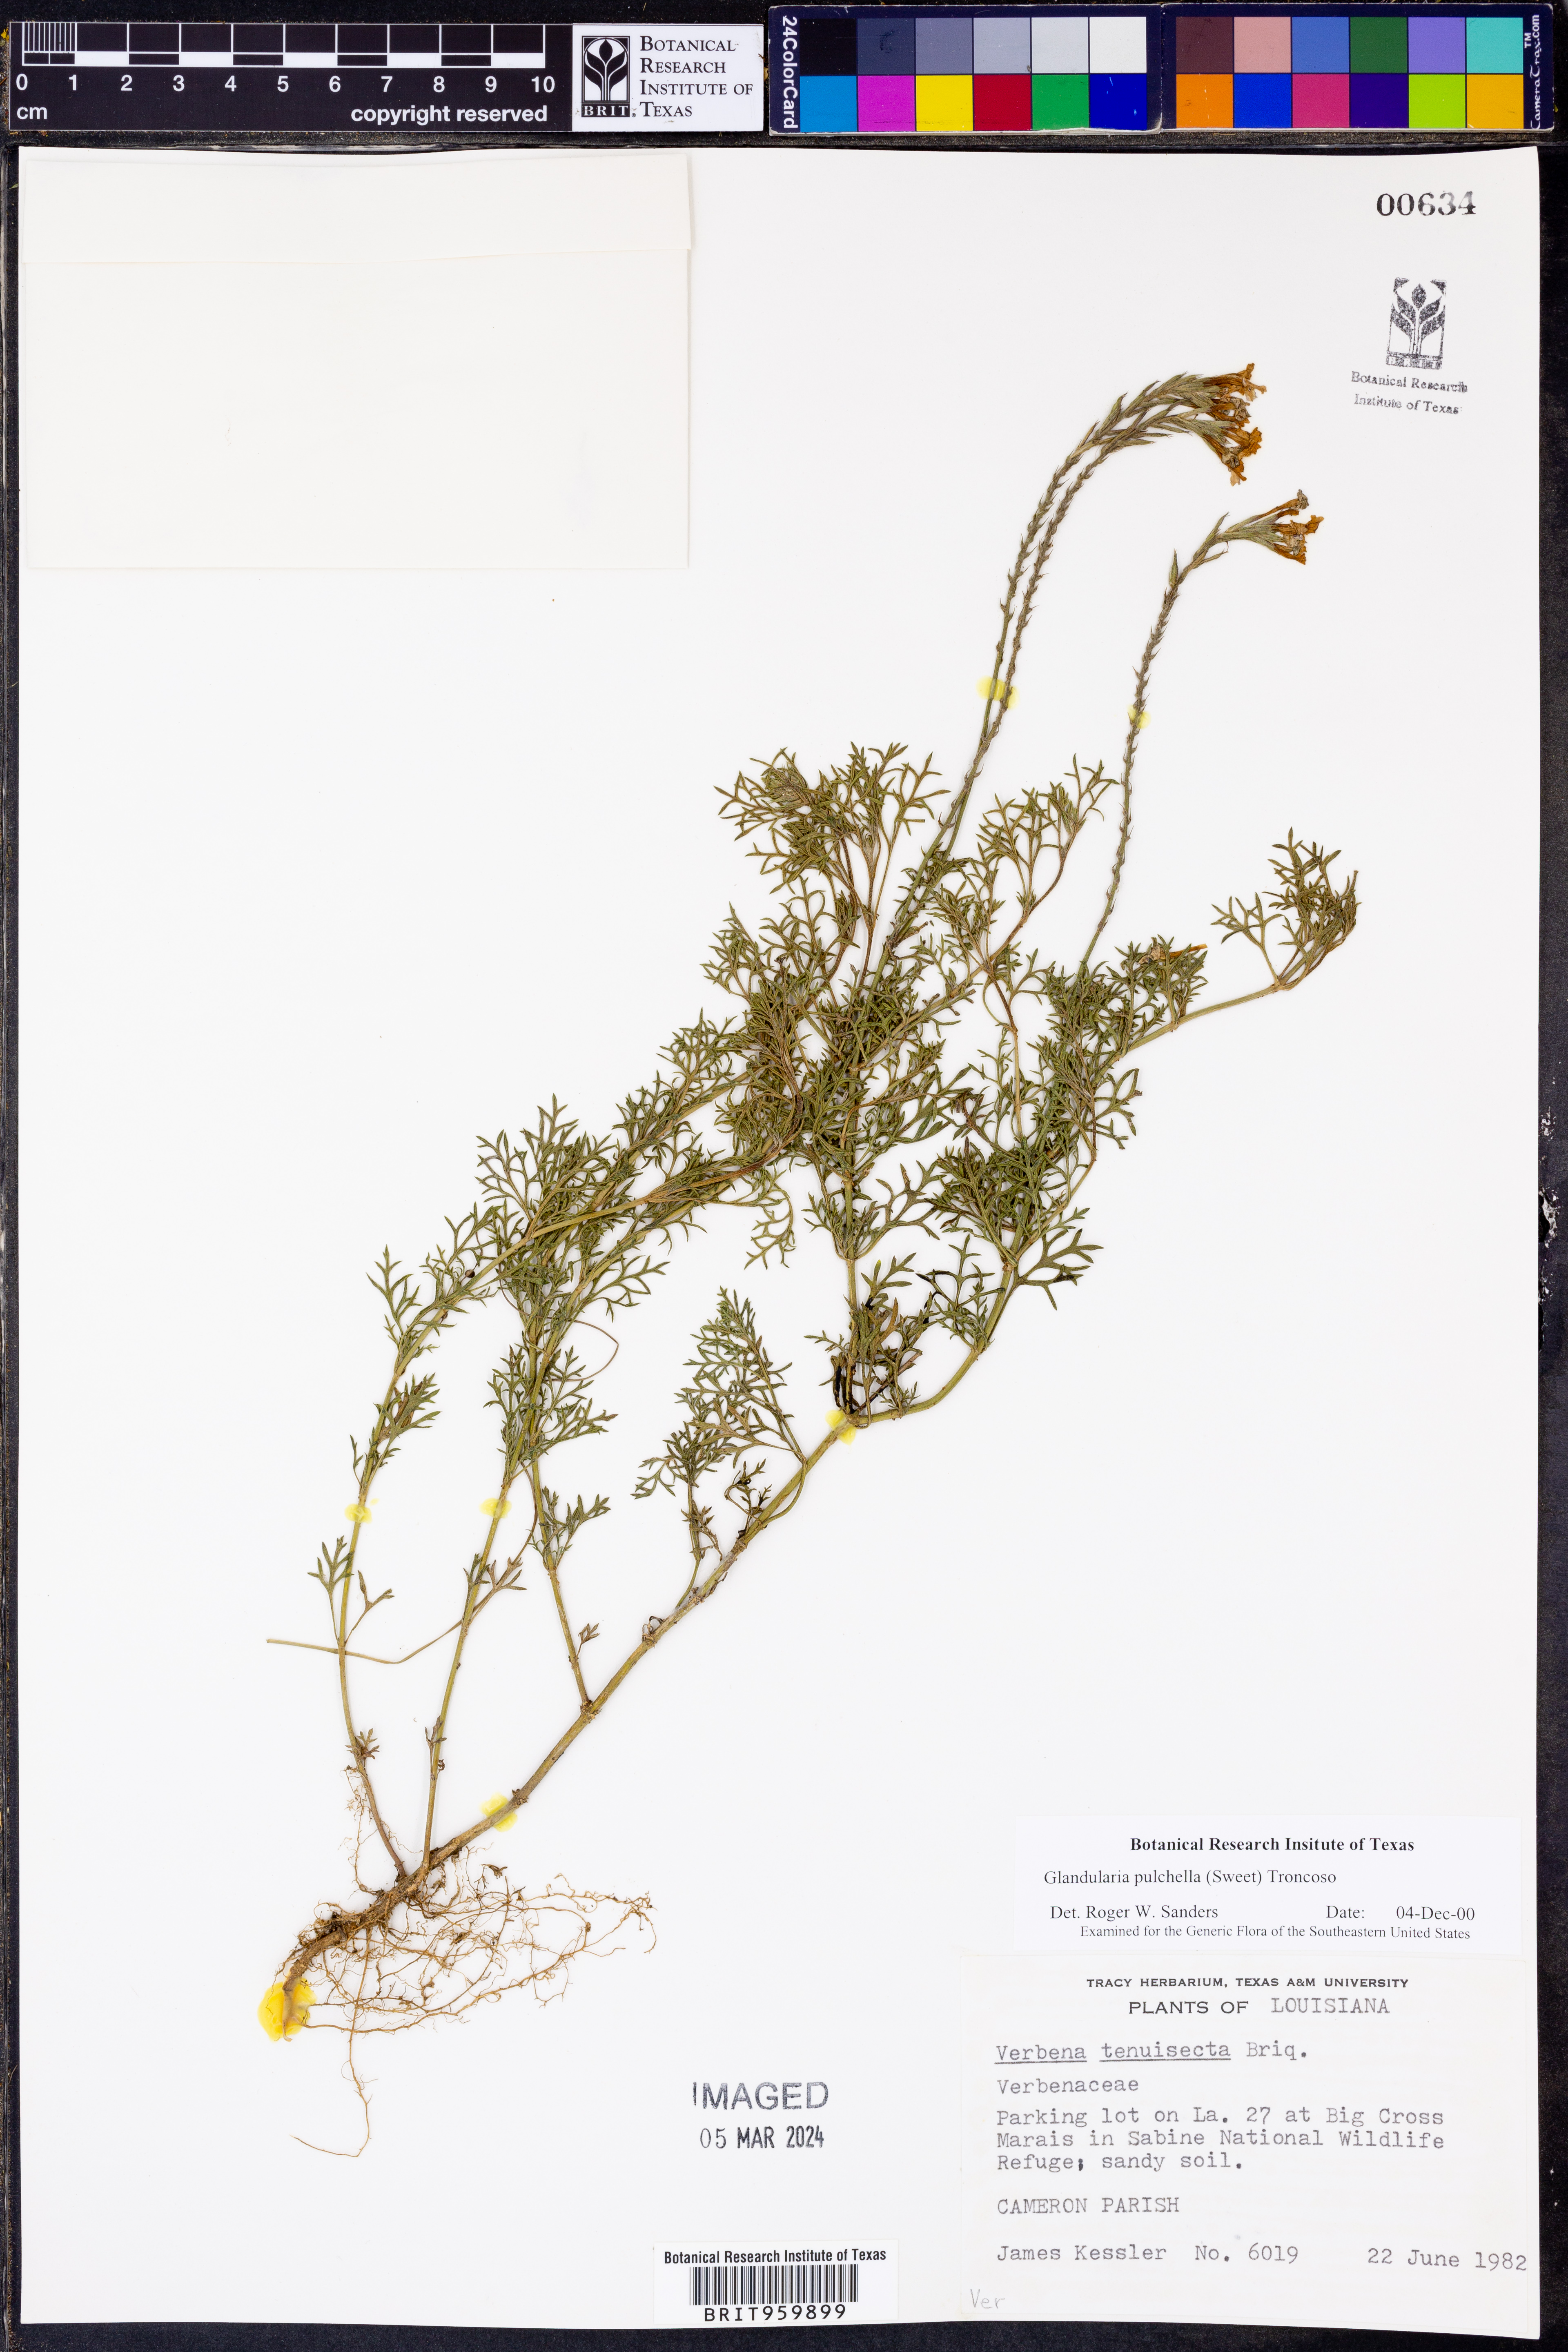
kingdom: Plantae
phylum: Tracheophyta
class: Magnoliopsida
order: Lamiales
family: Verbenaceae
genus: Verbena
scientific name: Verbena tenera
